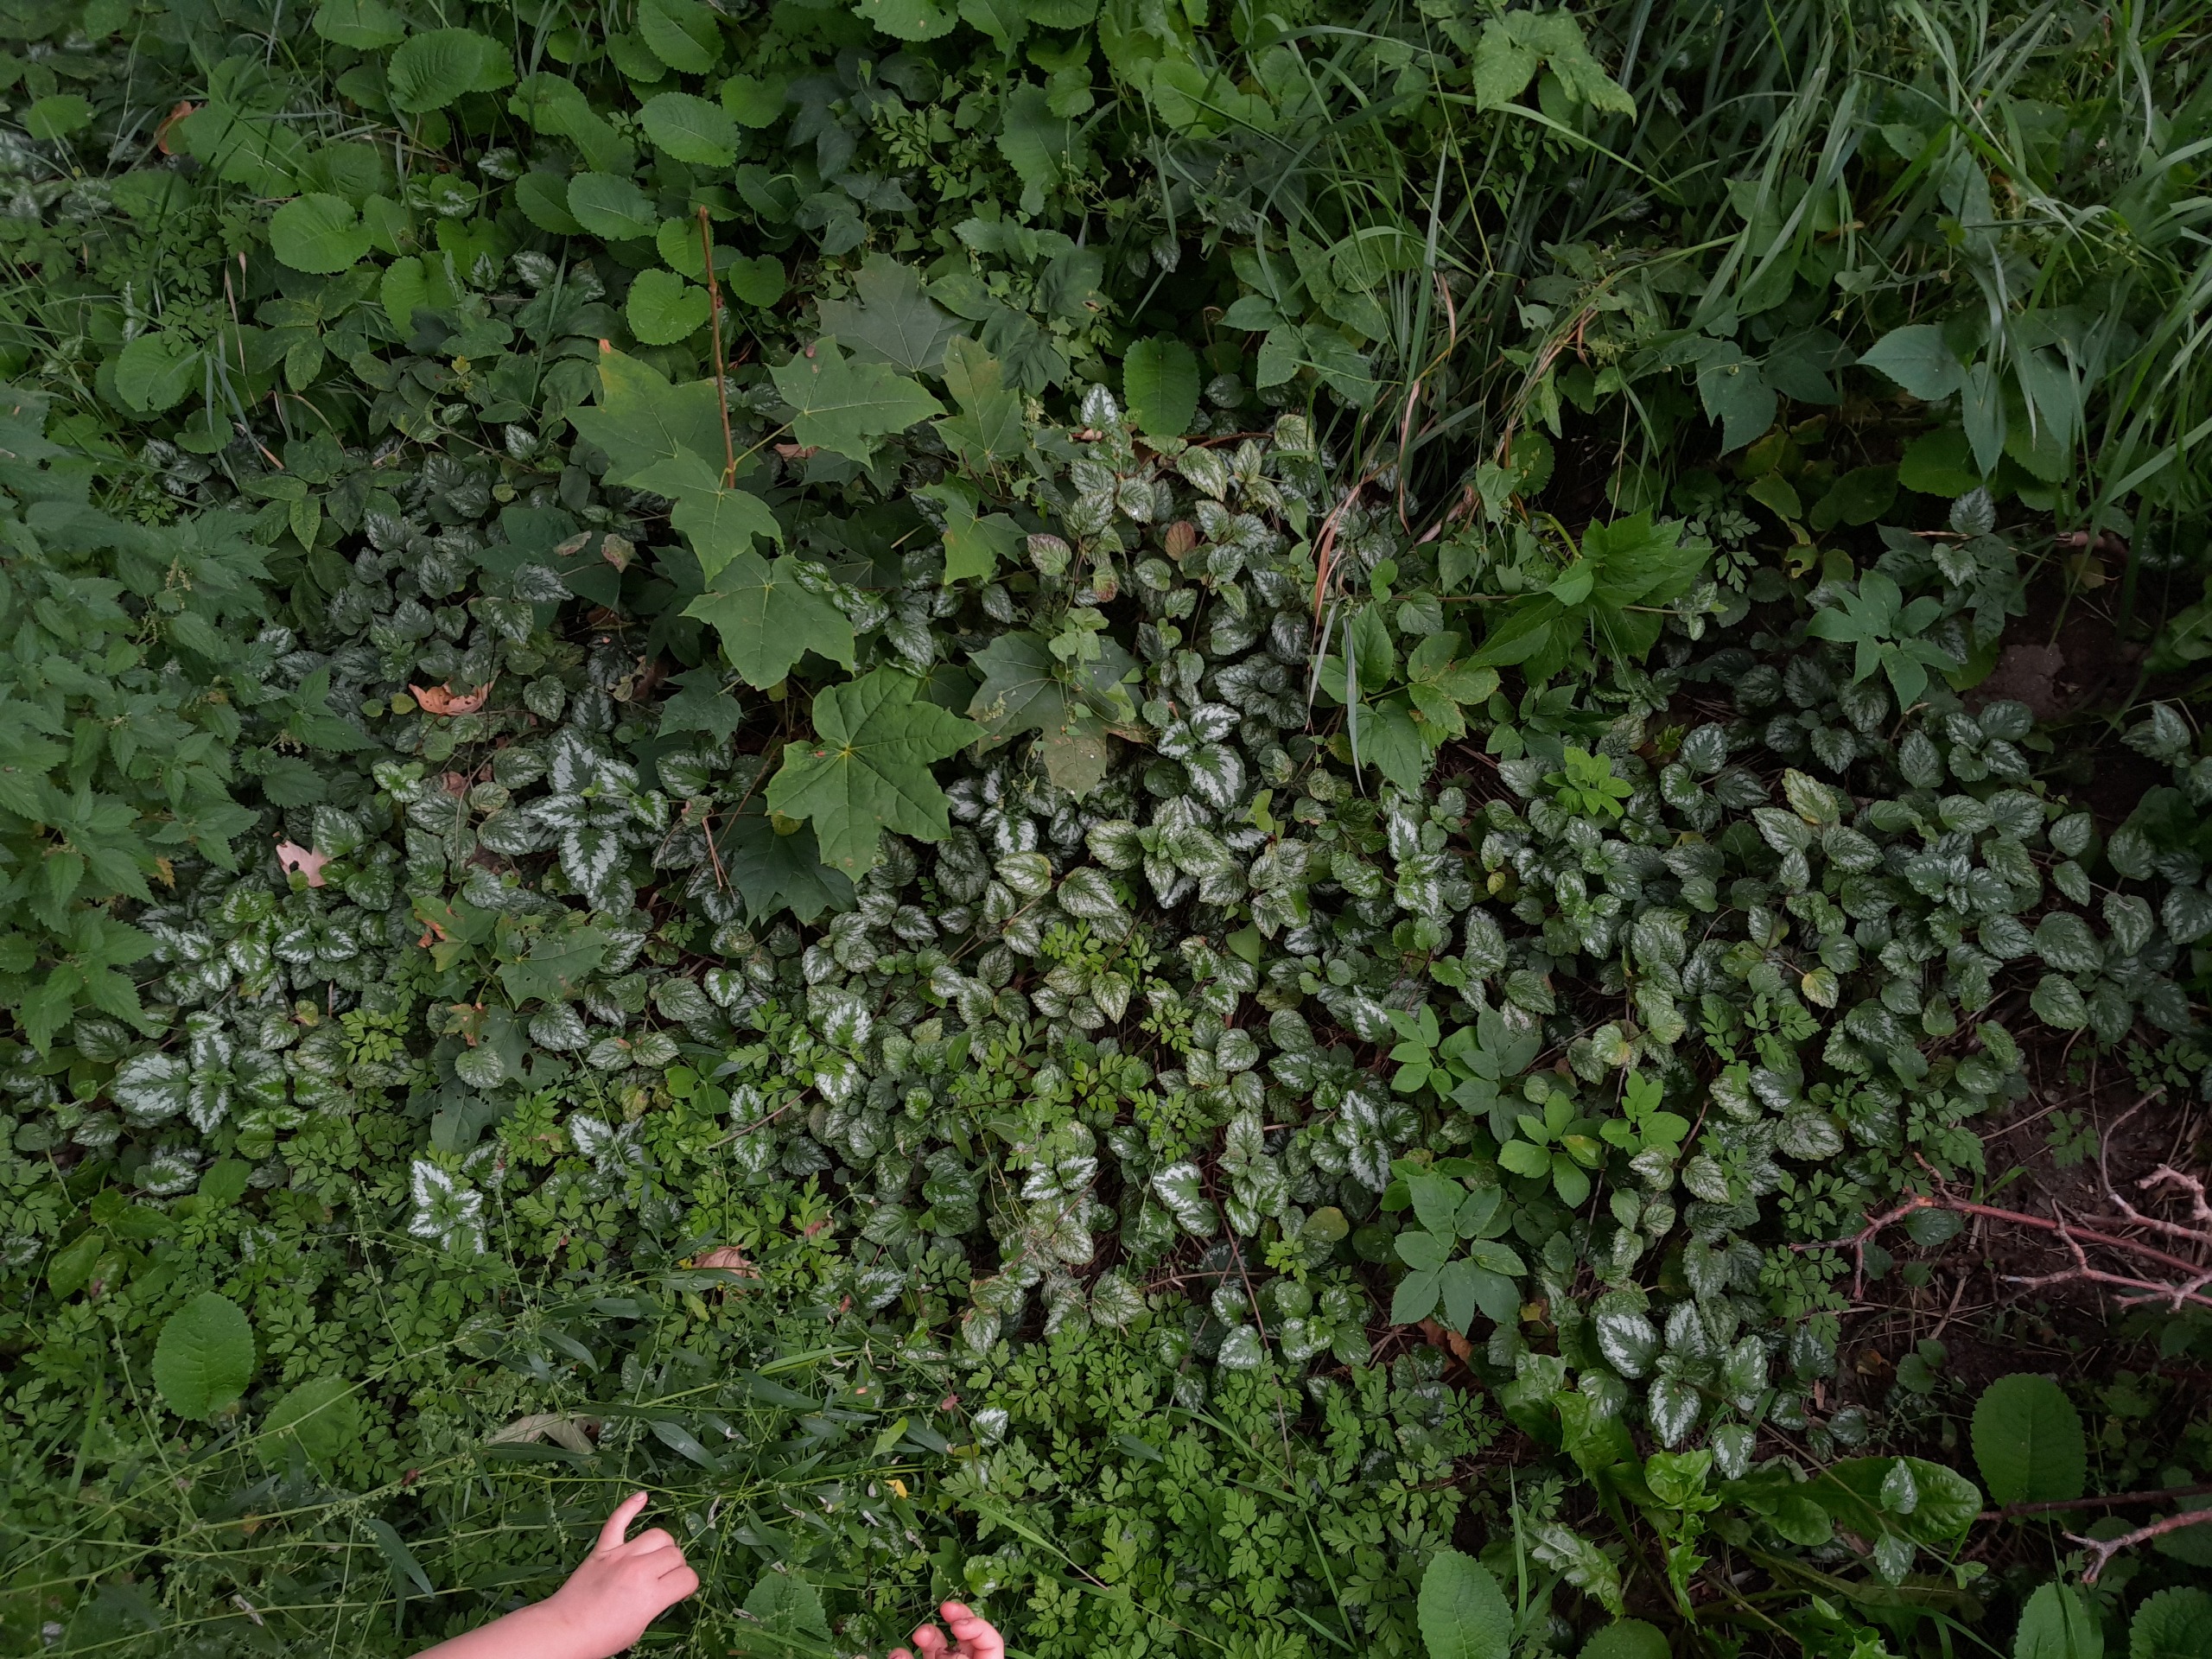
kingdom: Plantae
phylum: Tracheophyta
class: Magnoliopsida
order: Lamiales
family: Lamiaceae
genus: Lamium
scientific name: Lamium galeobdolon
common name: Have-guldnælde
